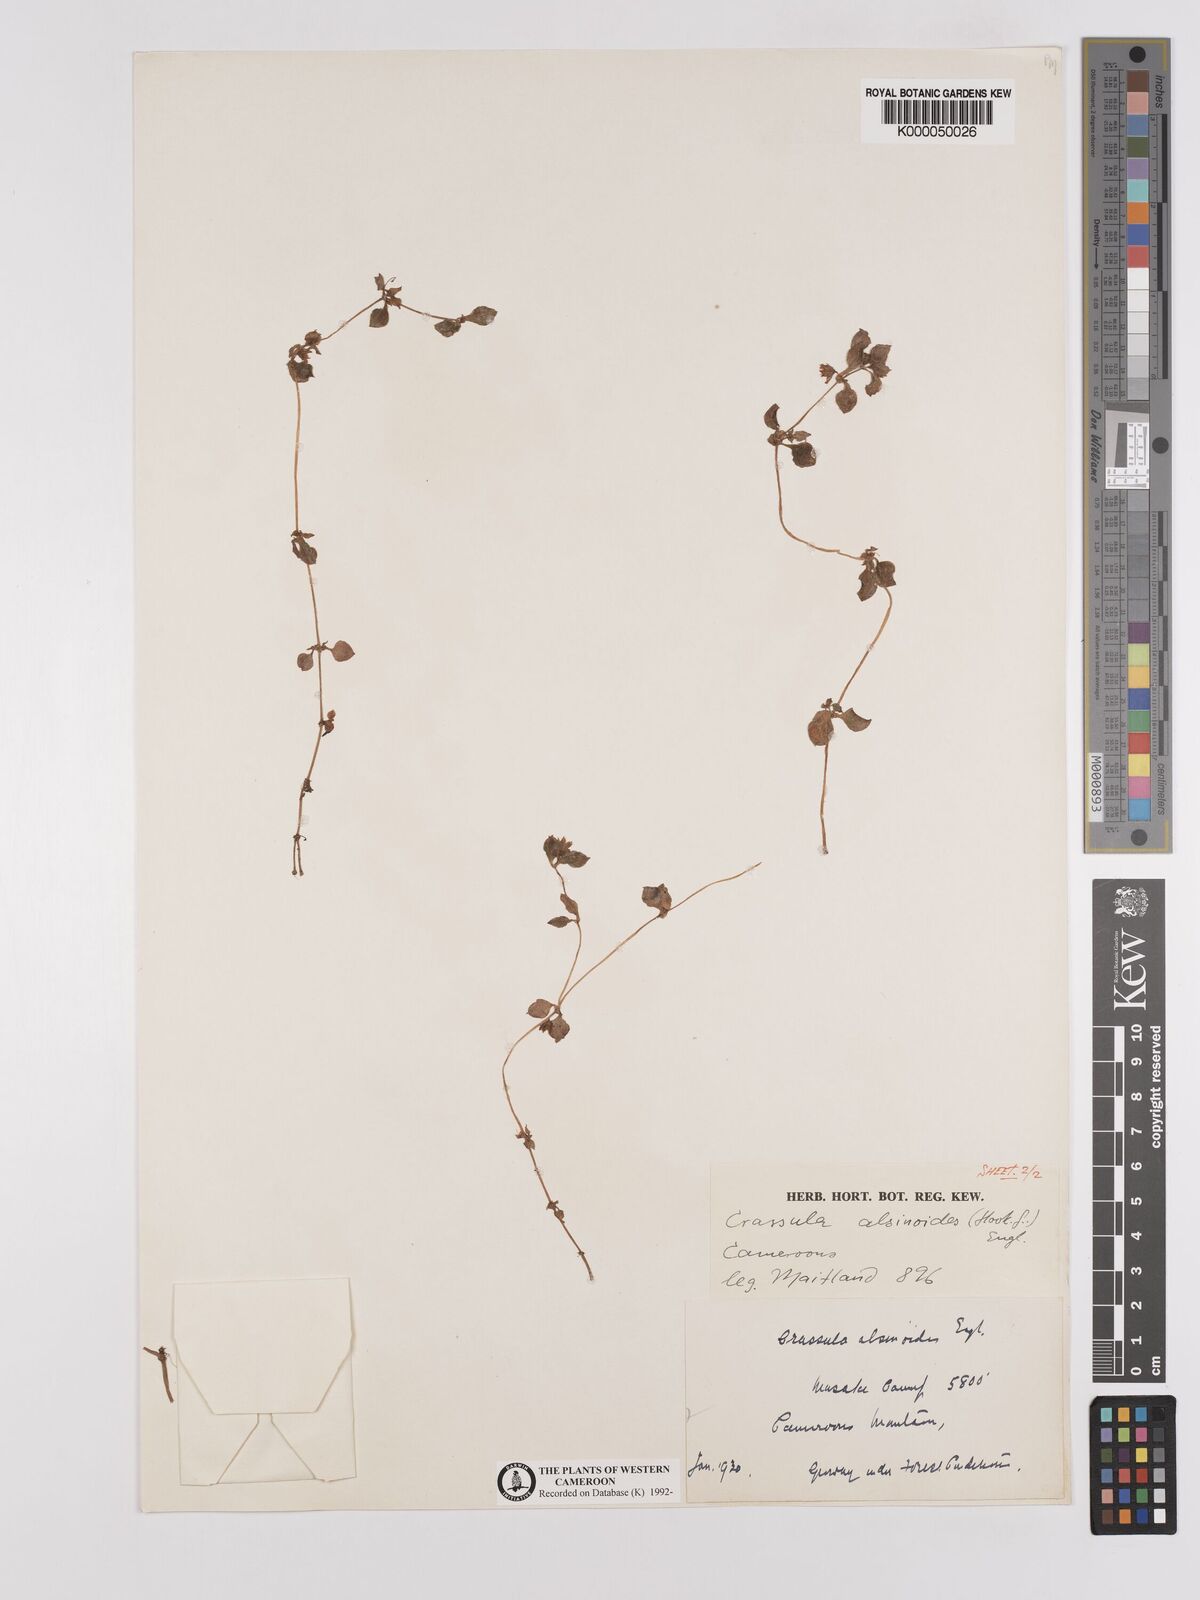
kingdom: Plantae
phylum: Tracheophyta
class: Magnoliopsida
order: Saxifragales
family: Crassulaceae
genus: Crassula
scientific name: Crassula alsinoides
